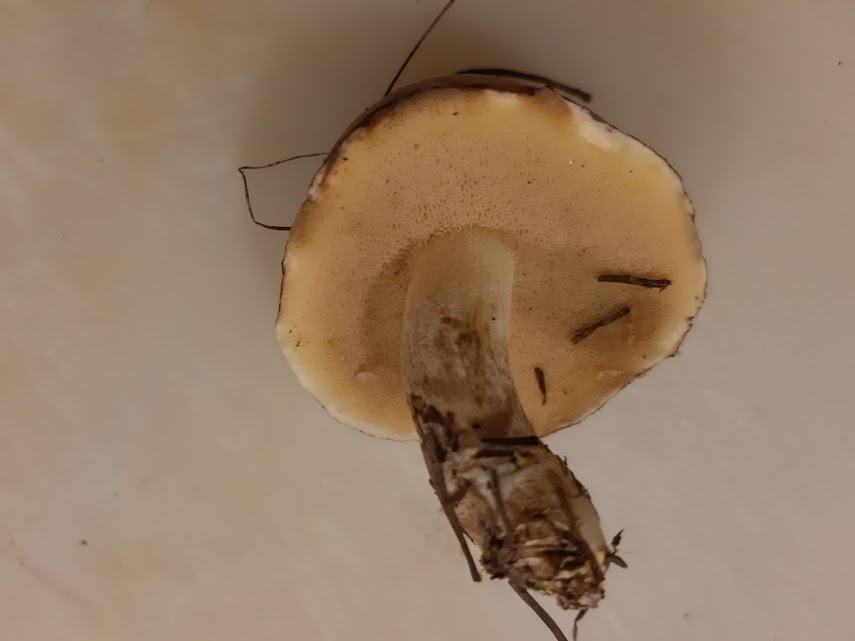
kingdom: Fungi
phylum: Basidiomycota
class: Agaricomycetes
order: Boletales
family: Suillaceae
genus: Suillus
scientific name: Suillus granulatus
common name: kornet slimrørhat
